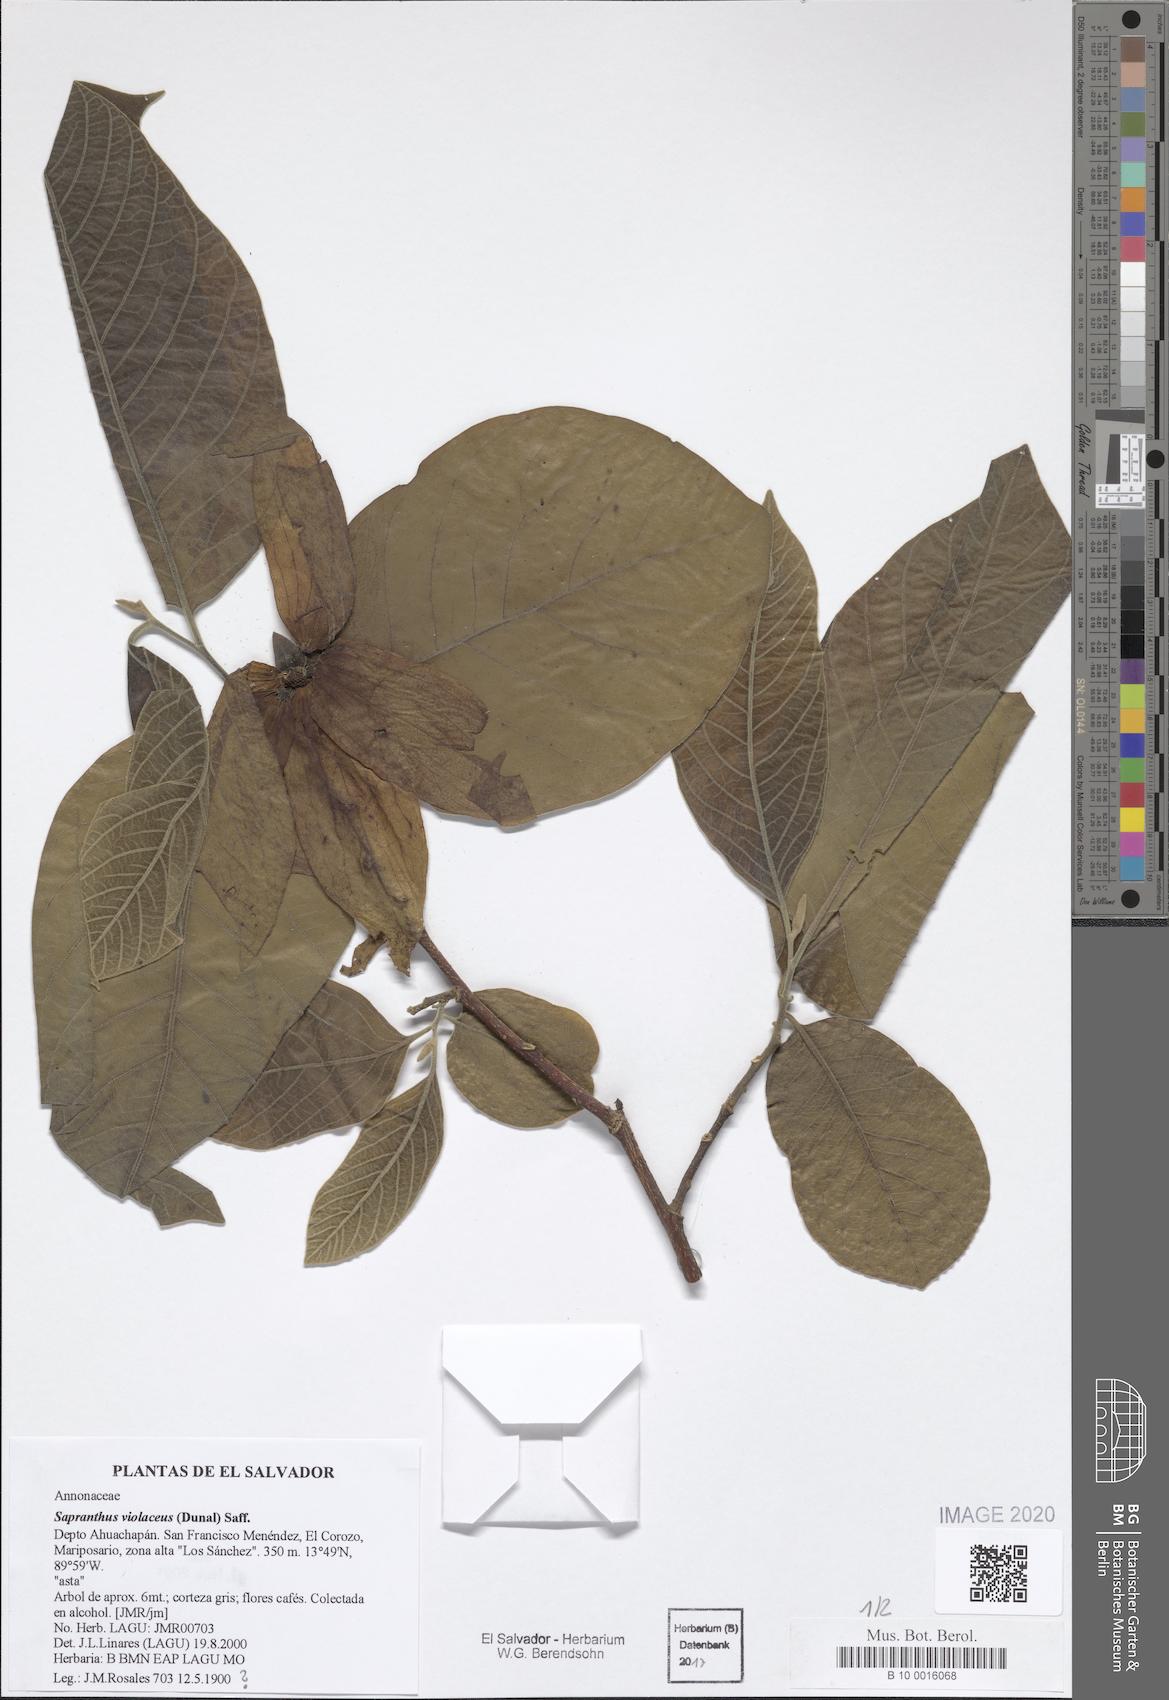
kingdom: Plantae
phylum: Tracheophyta
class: Magnoliopsida
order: Magnoliales
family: Annonaceae
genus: Sapranthus
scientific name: Sapranthus violaceus
